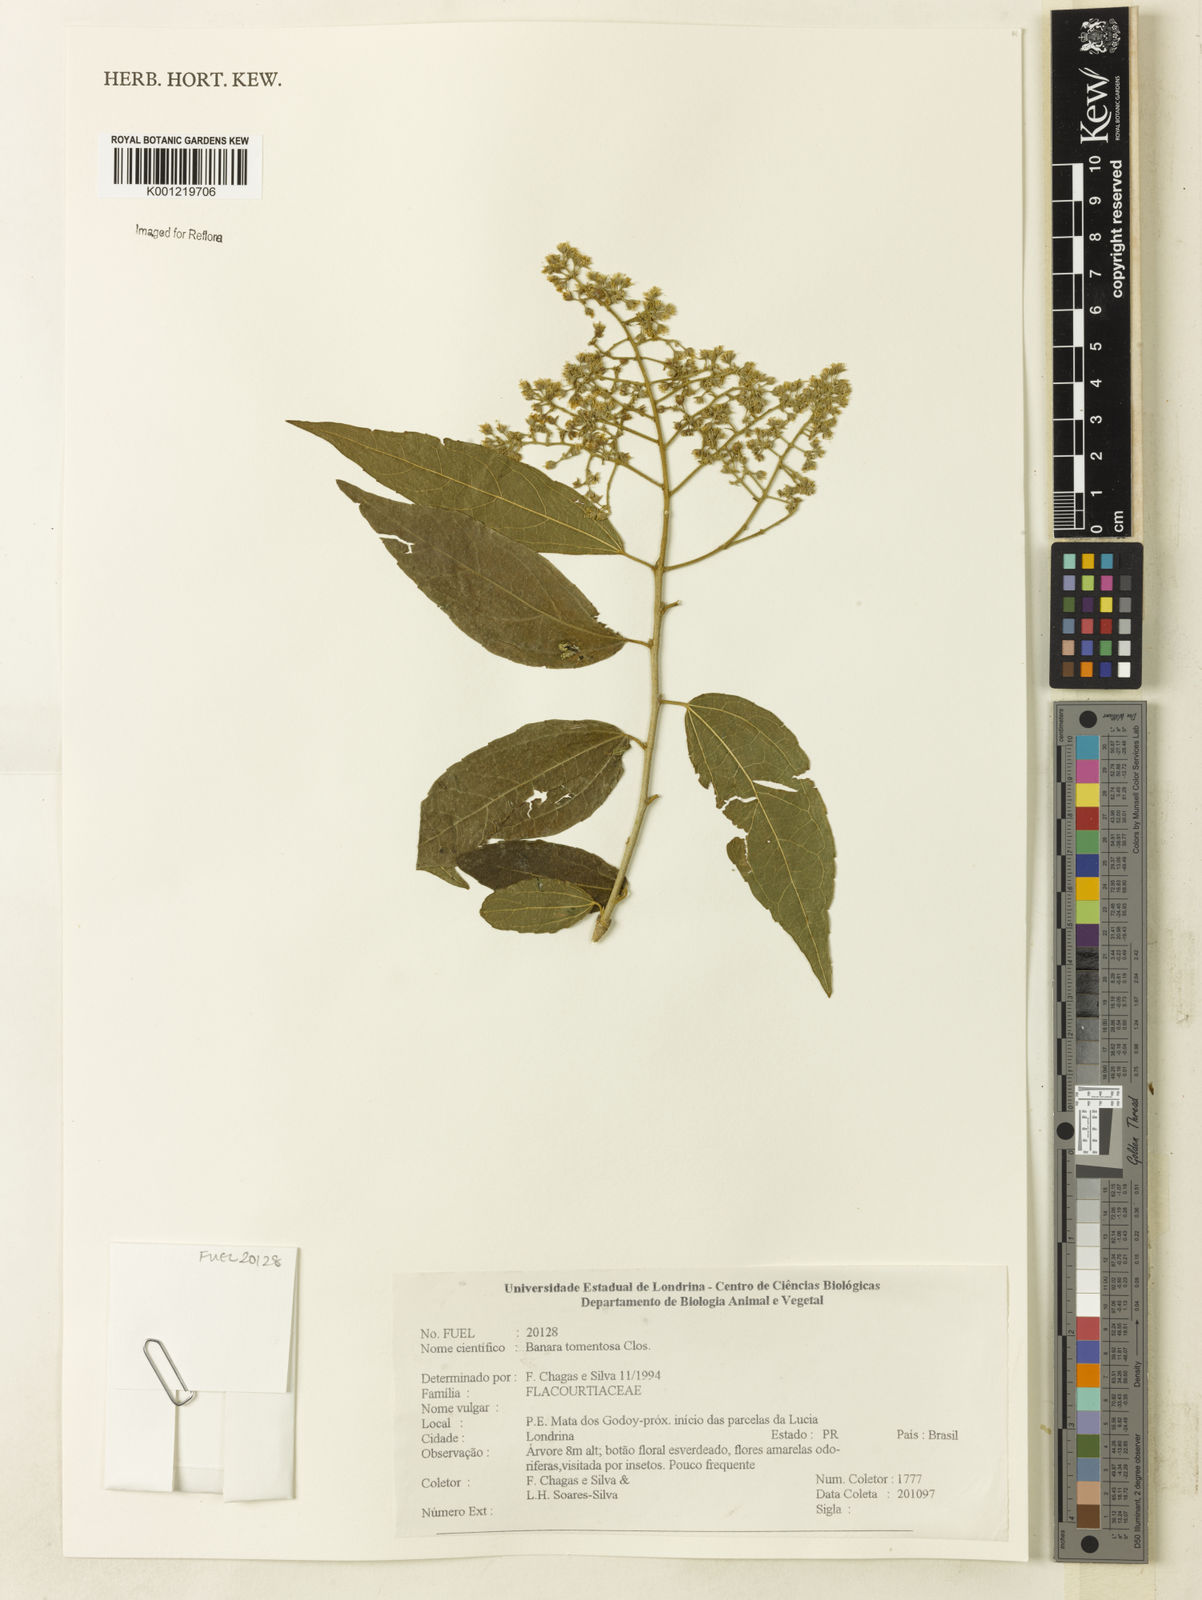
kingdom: Plantae
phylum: Tracheophyta
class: Magnoliopsida
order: Malpighiales
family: Salicaceae
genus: Banara
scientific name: Banara tomentosa
